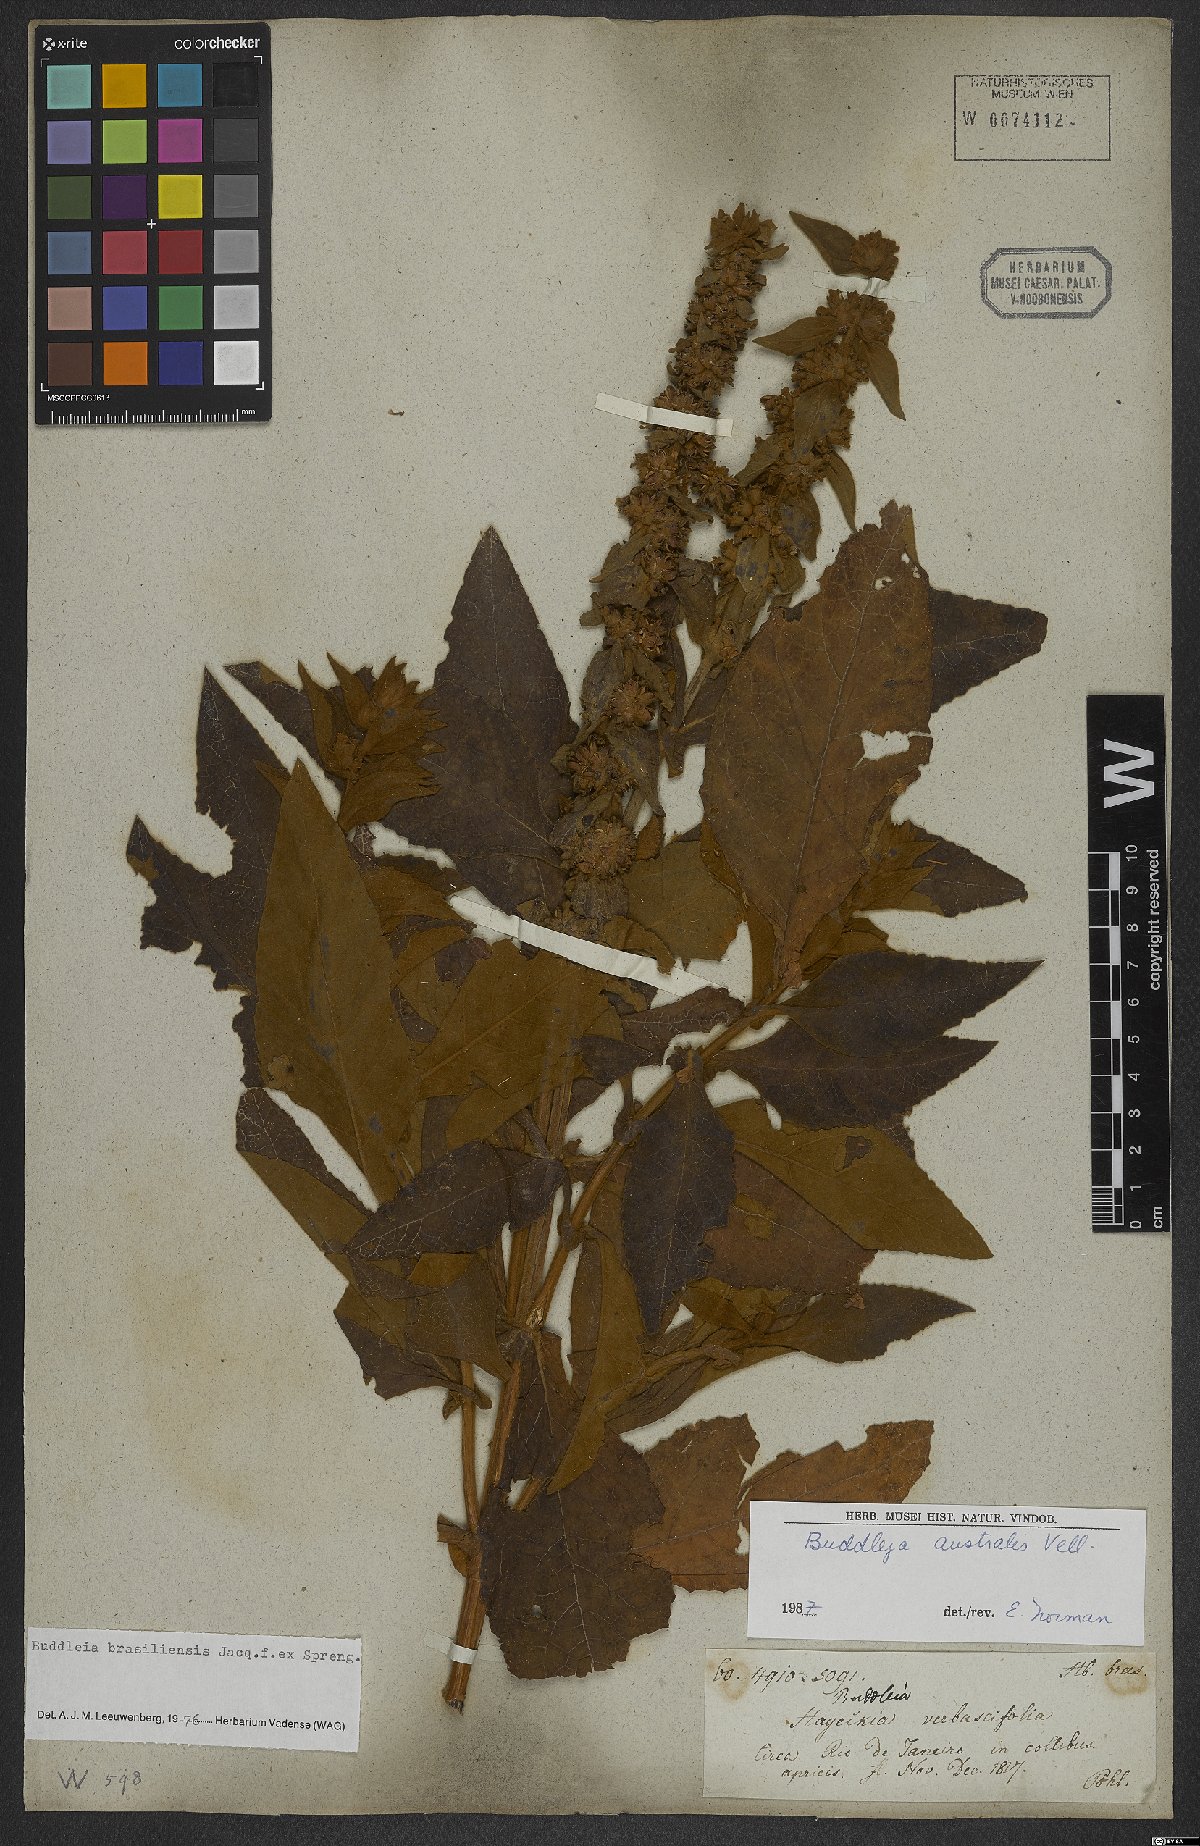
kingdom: Plantae
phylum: Tracheophyta
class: Magnoliopsida
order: Lamiales
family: Scrophulariaceae
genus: Buddleja
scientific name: Buddleja stachyoides
